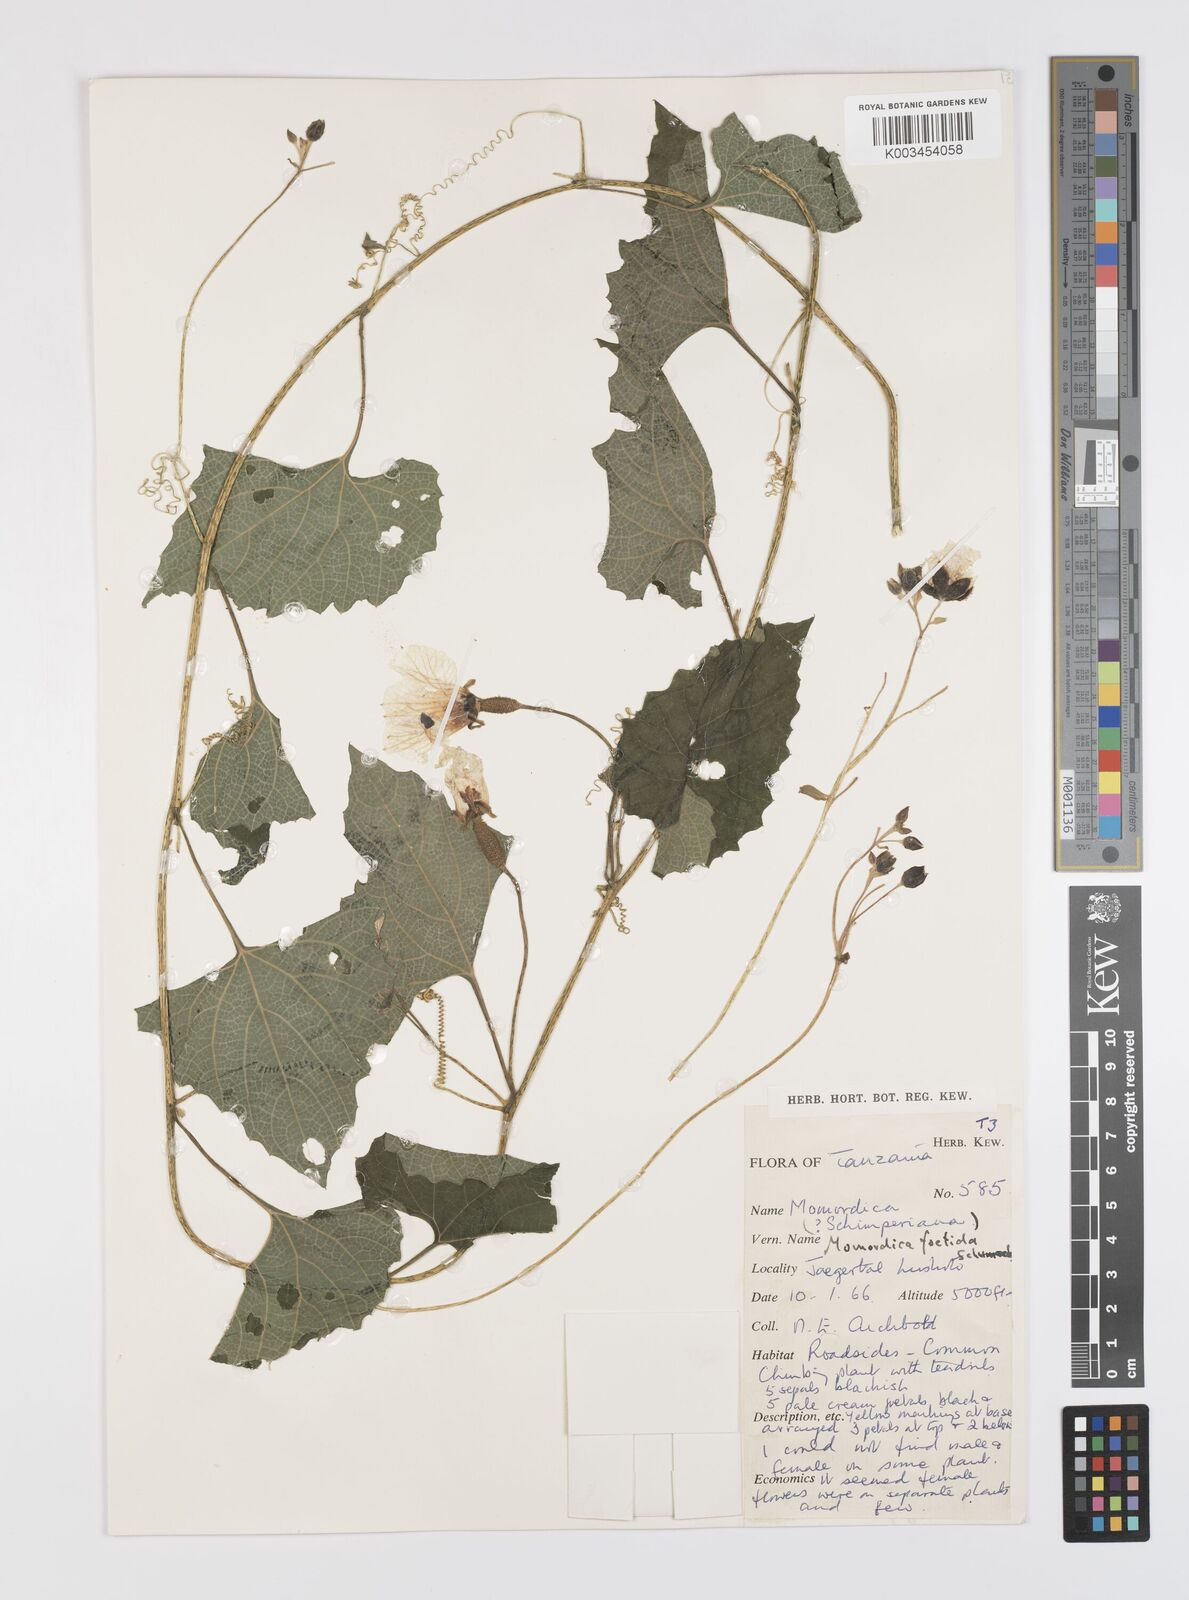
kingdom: Plantae
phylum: Tracheophyta
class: Magnoliopsida
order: Cucurbitales
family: Cucurbitaceae
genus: Momordica
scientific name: Momordica foetida
